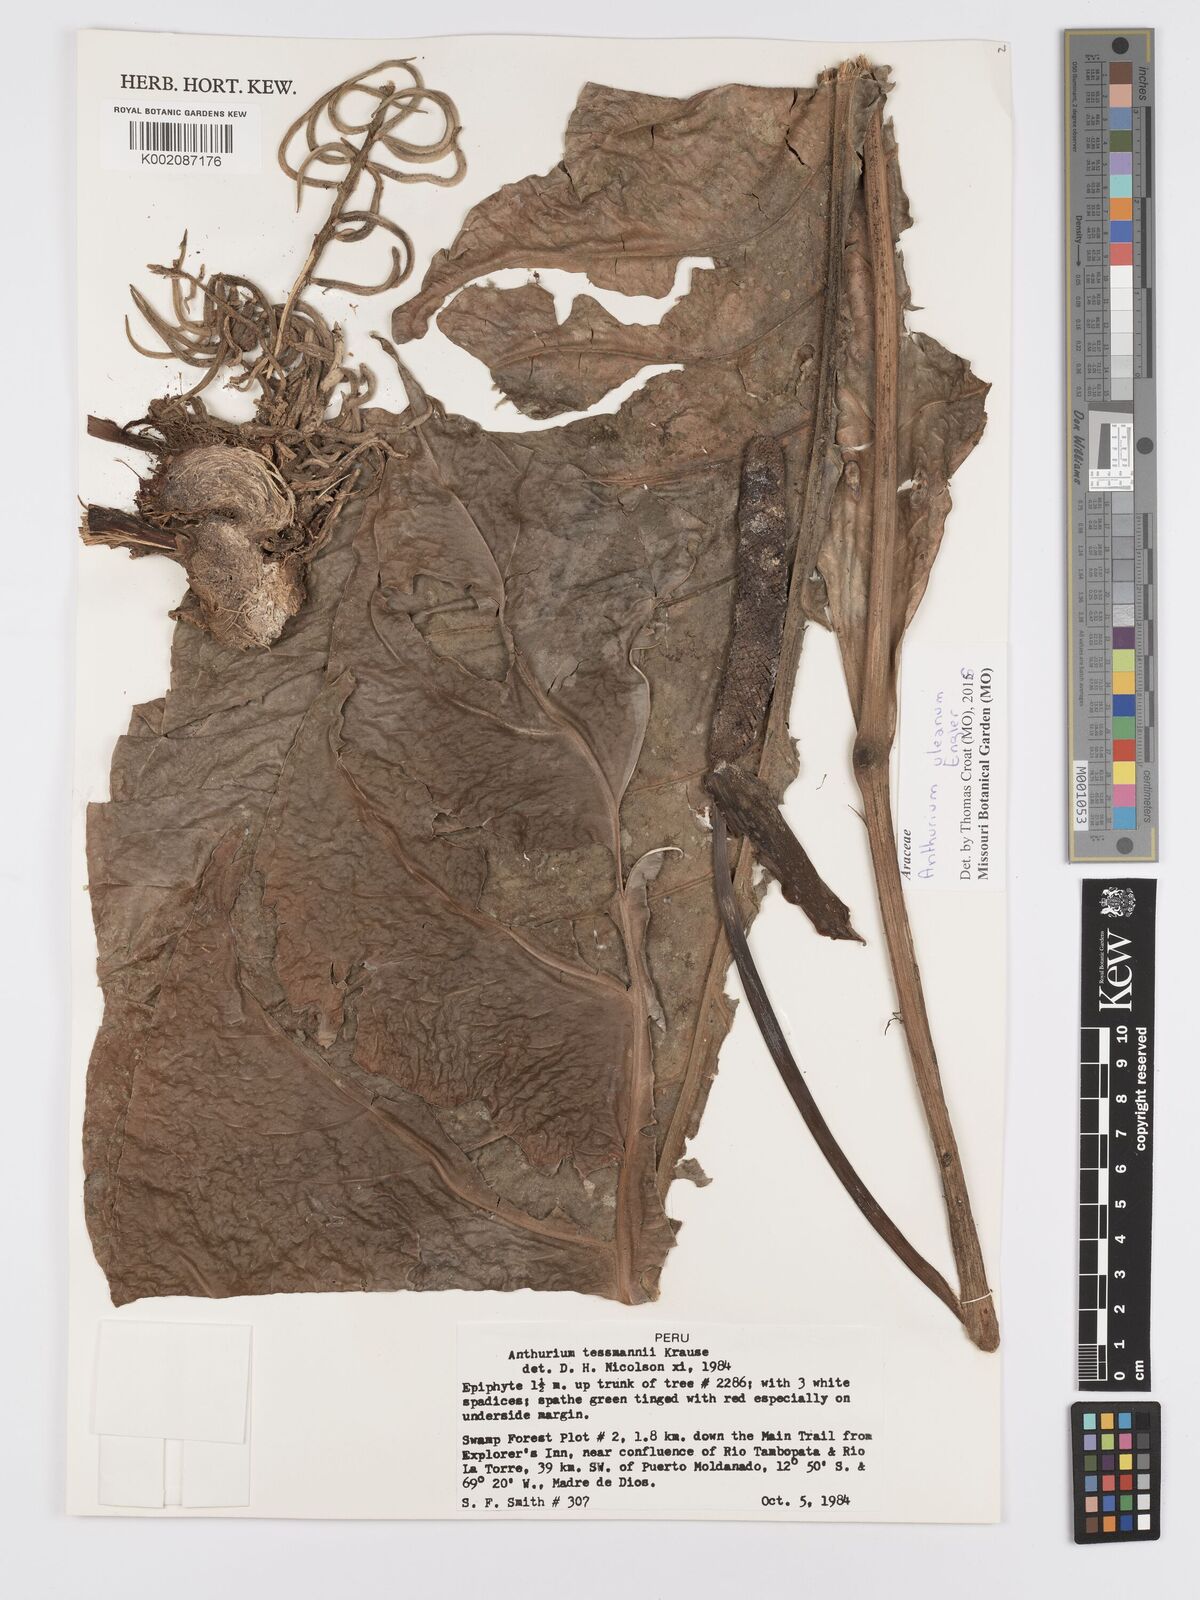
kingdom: Plantae
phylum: Tracheophyta
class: Liliopsida
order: Alismatales
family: Araceae
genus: Anthurium
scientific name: Anthurium uleanum
